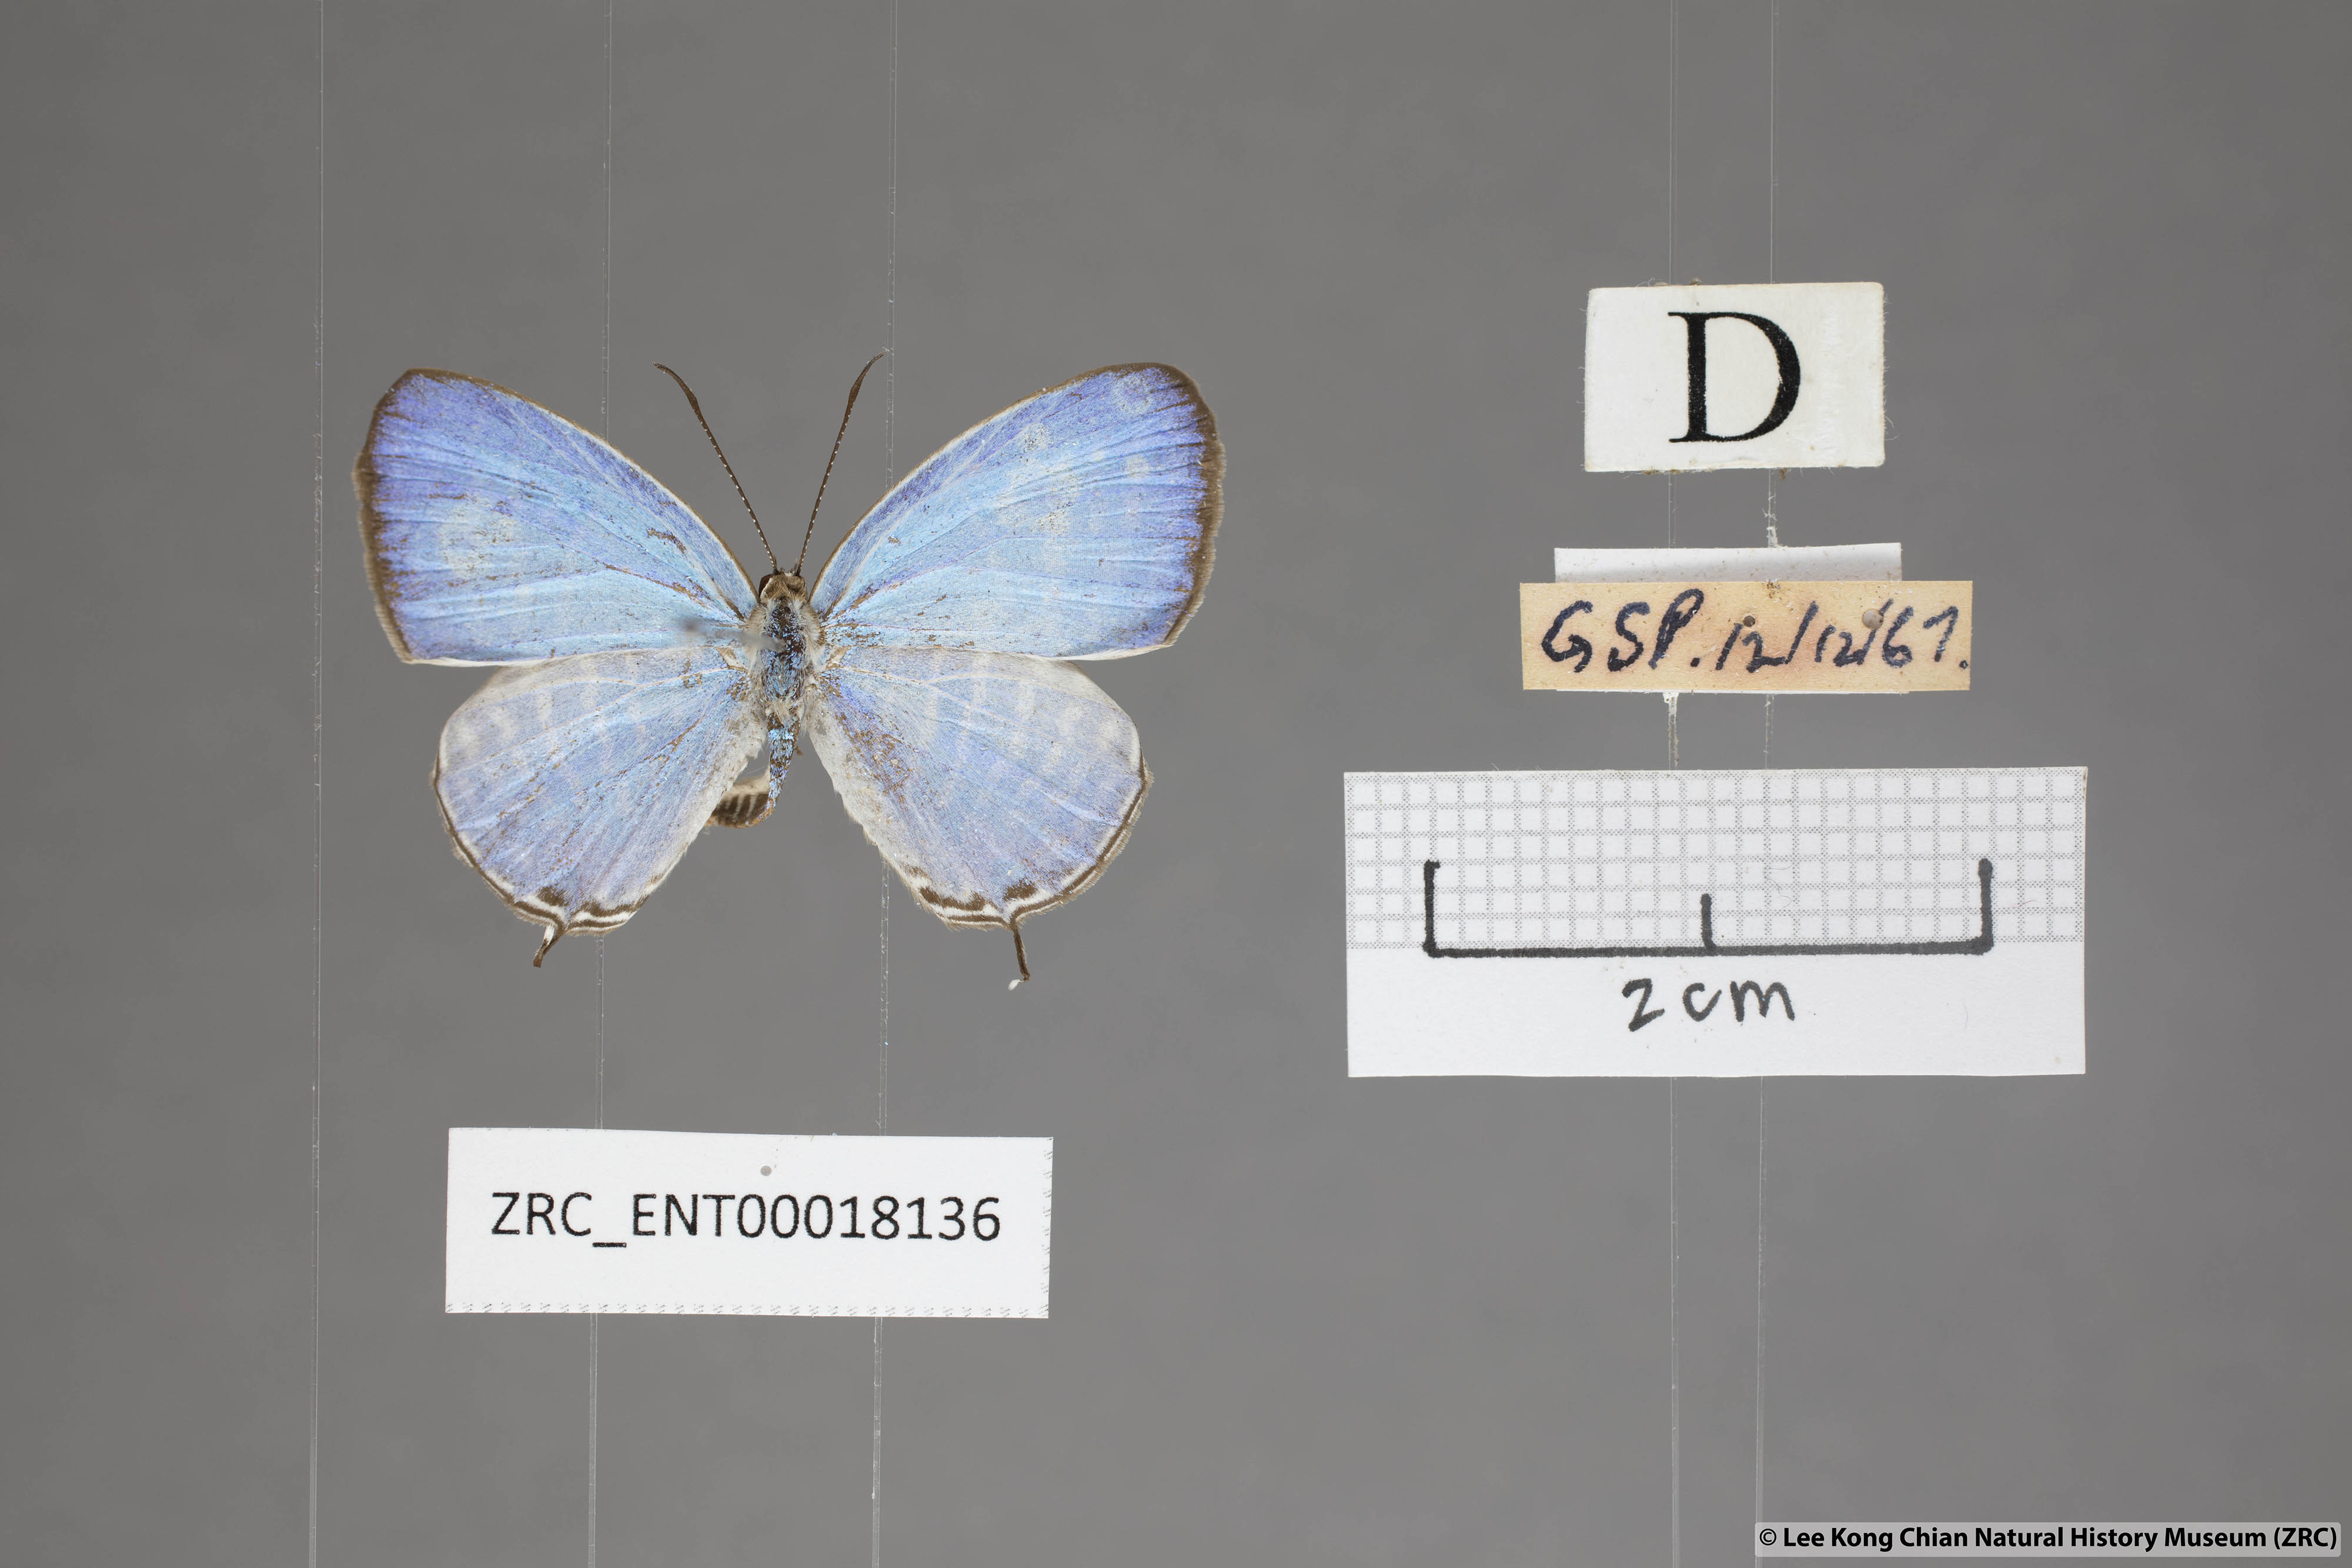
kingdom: Animalia
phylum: Arthropoda
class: Insecta
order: Lepidoptera
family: Lycaenidae
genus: Jamides
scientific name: Jamides malaccanus
